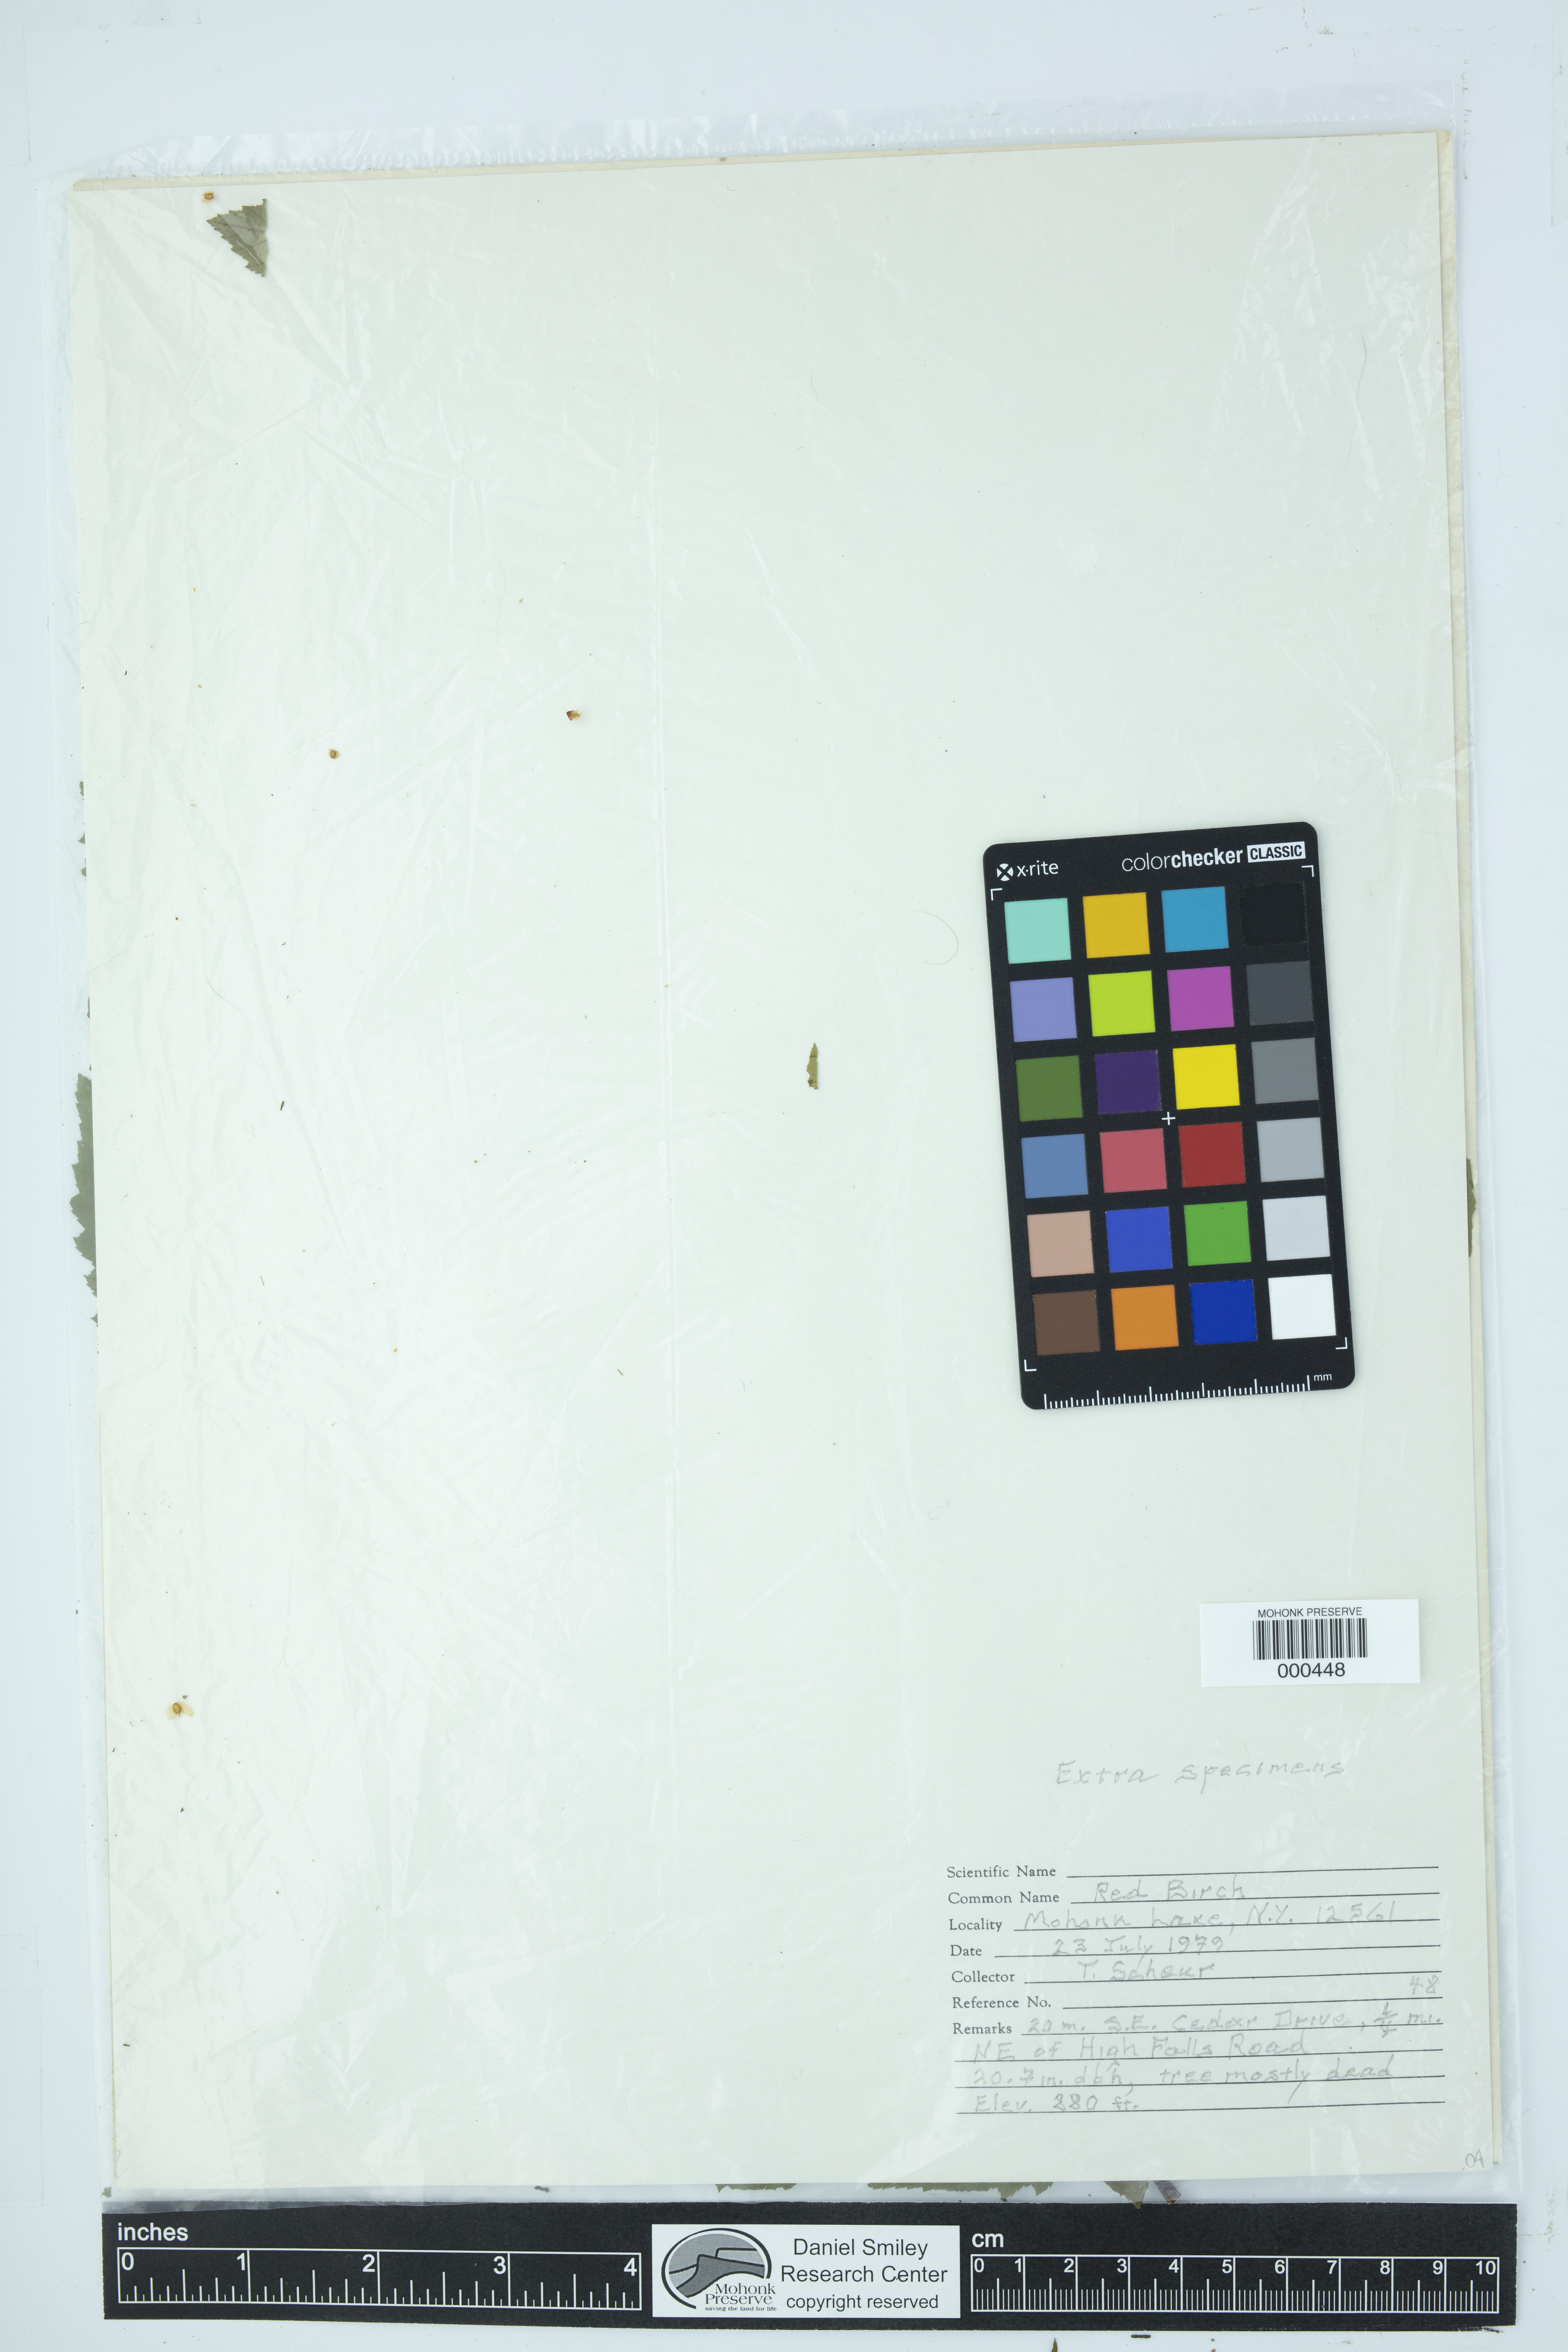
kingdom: Plantae
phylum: Tracheophyta
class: Magnoliopsida
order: Fagales
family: Betulaceae
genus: Betula
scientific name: Betula nigra
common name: Black birch
